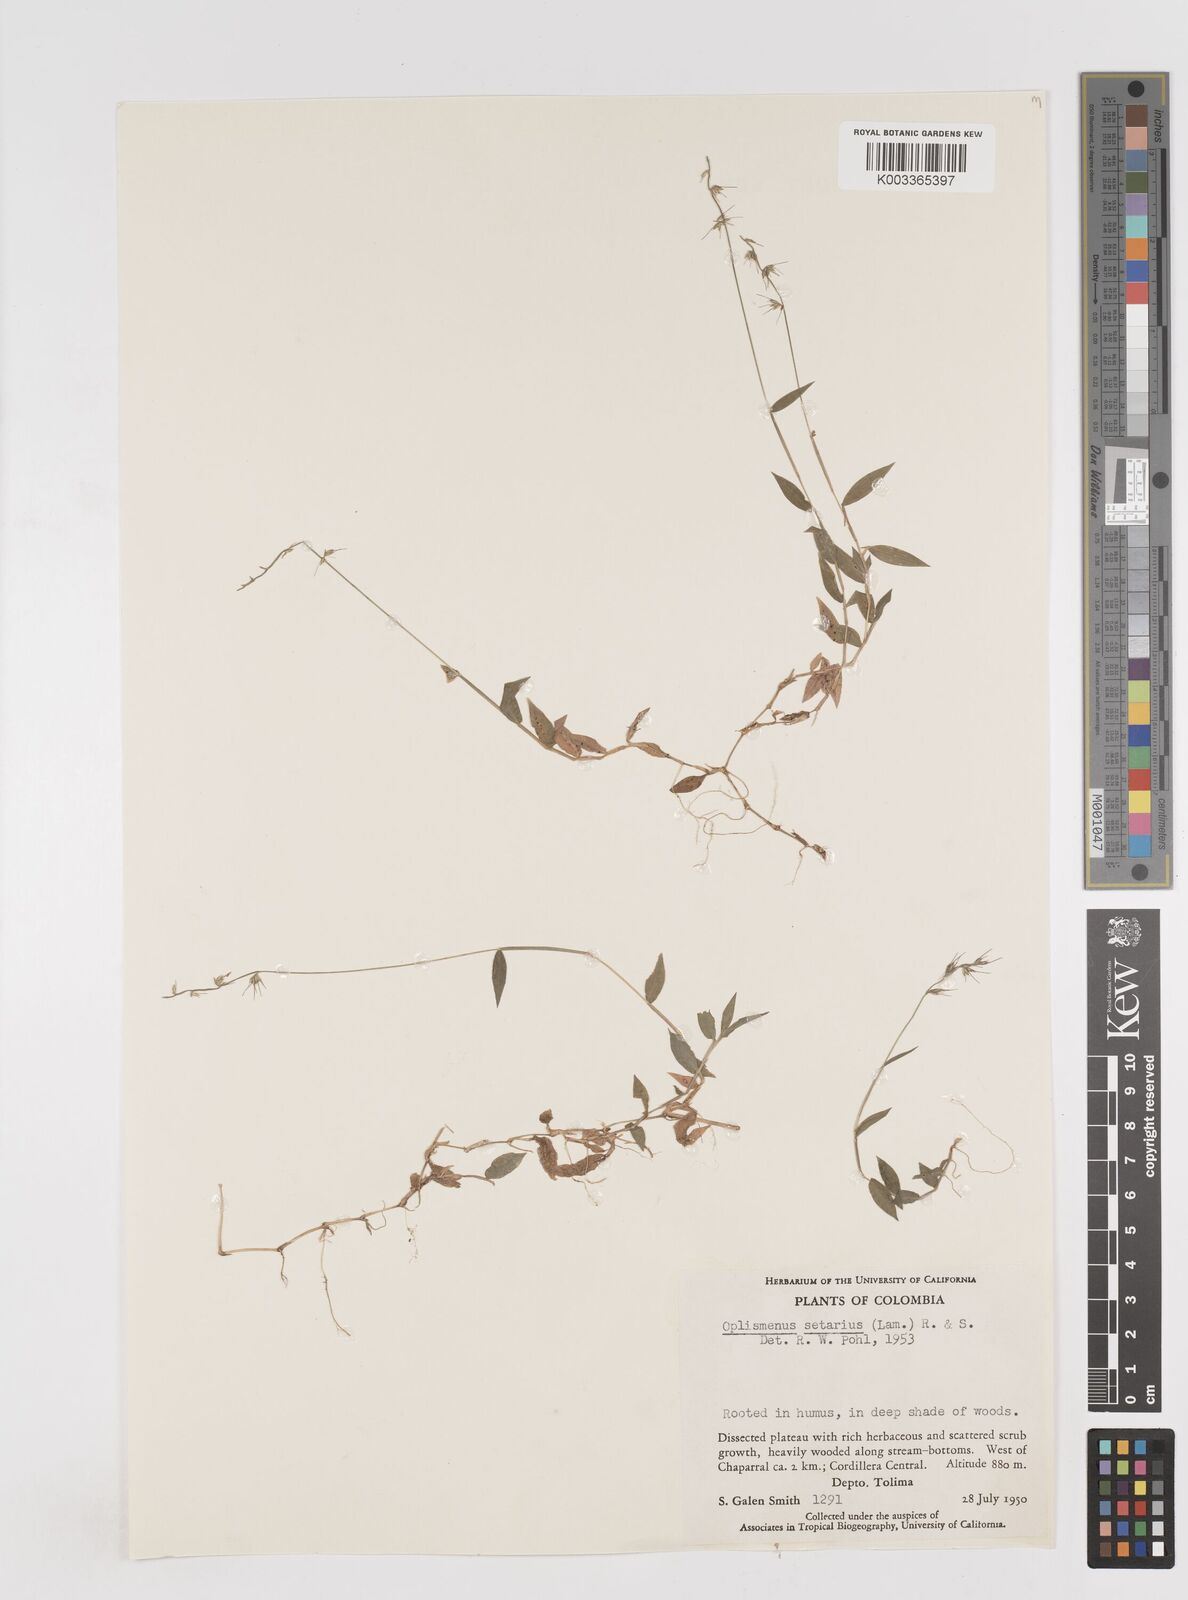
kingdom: Plantae
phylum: Tracheophyta
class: Liliopsida
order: Poales
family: Poaceae
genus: Oplismenus
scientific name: Oplismenus hirtellus
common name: Basketgrass
